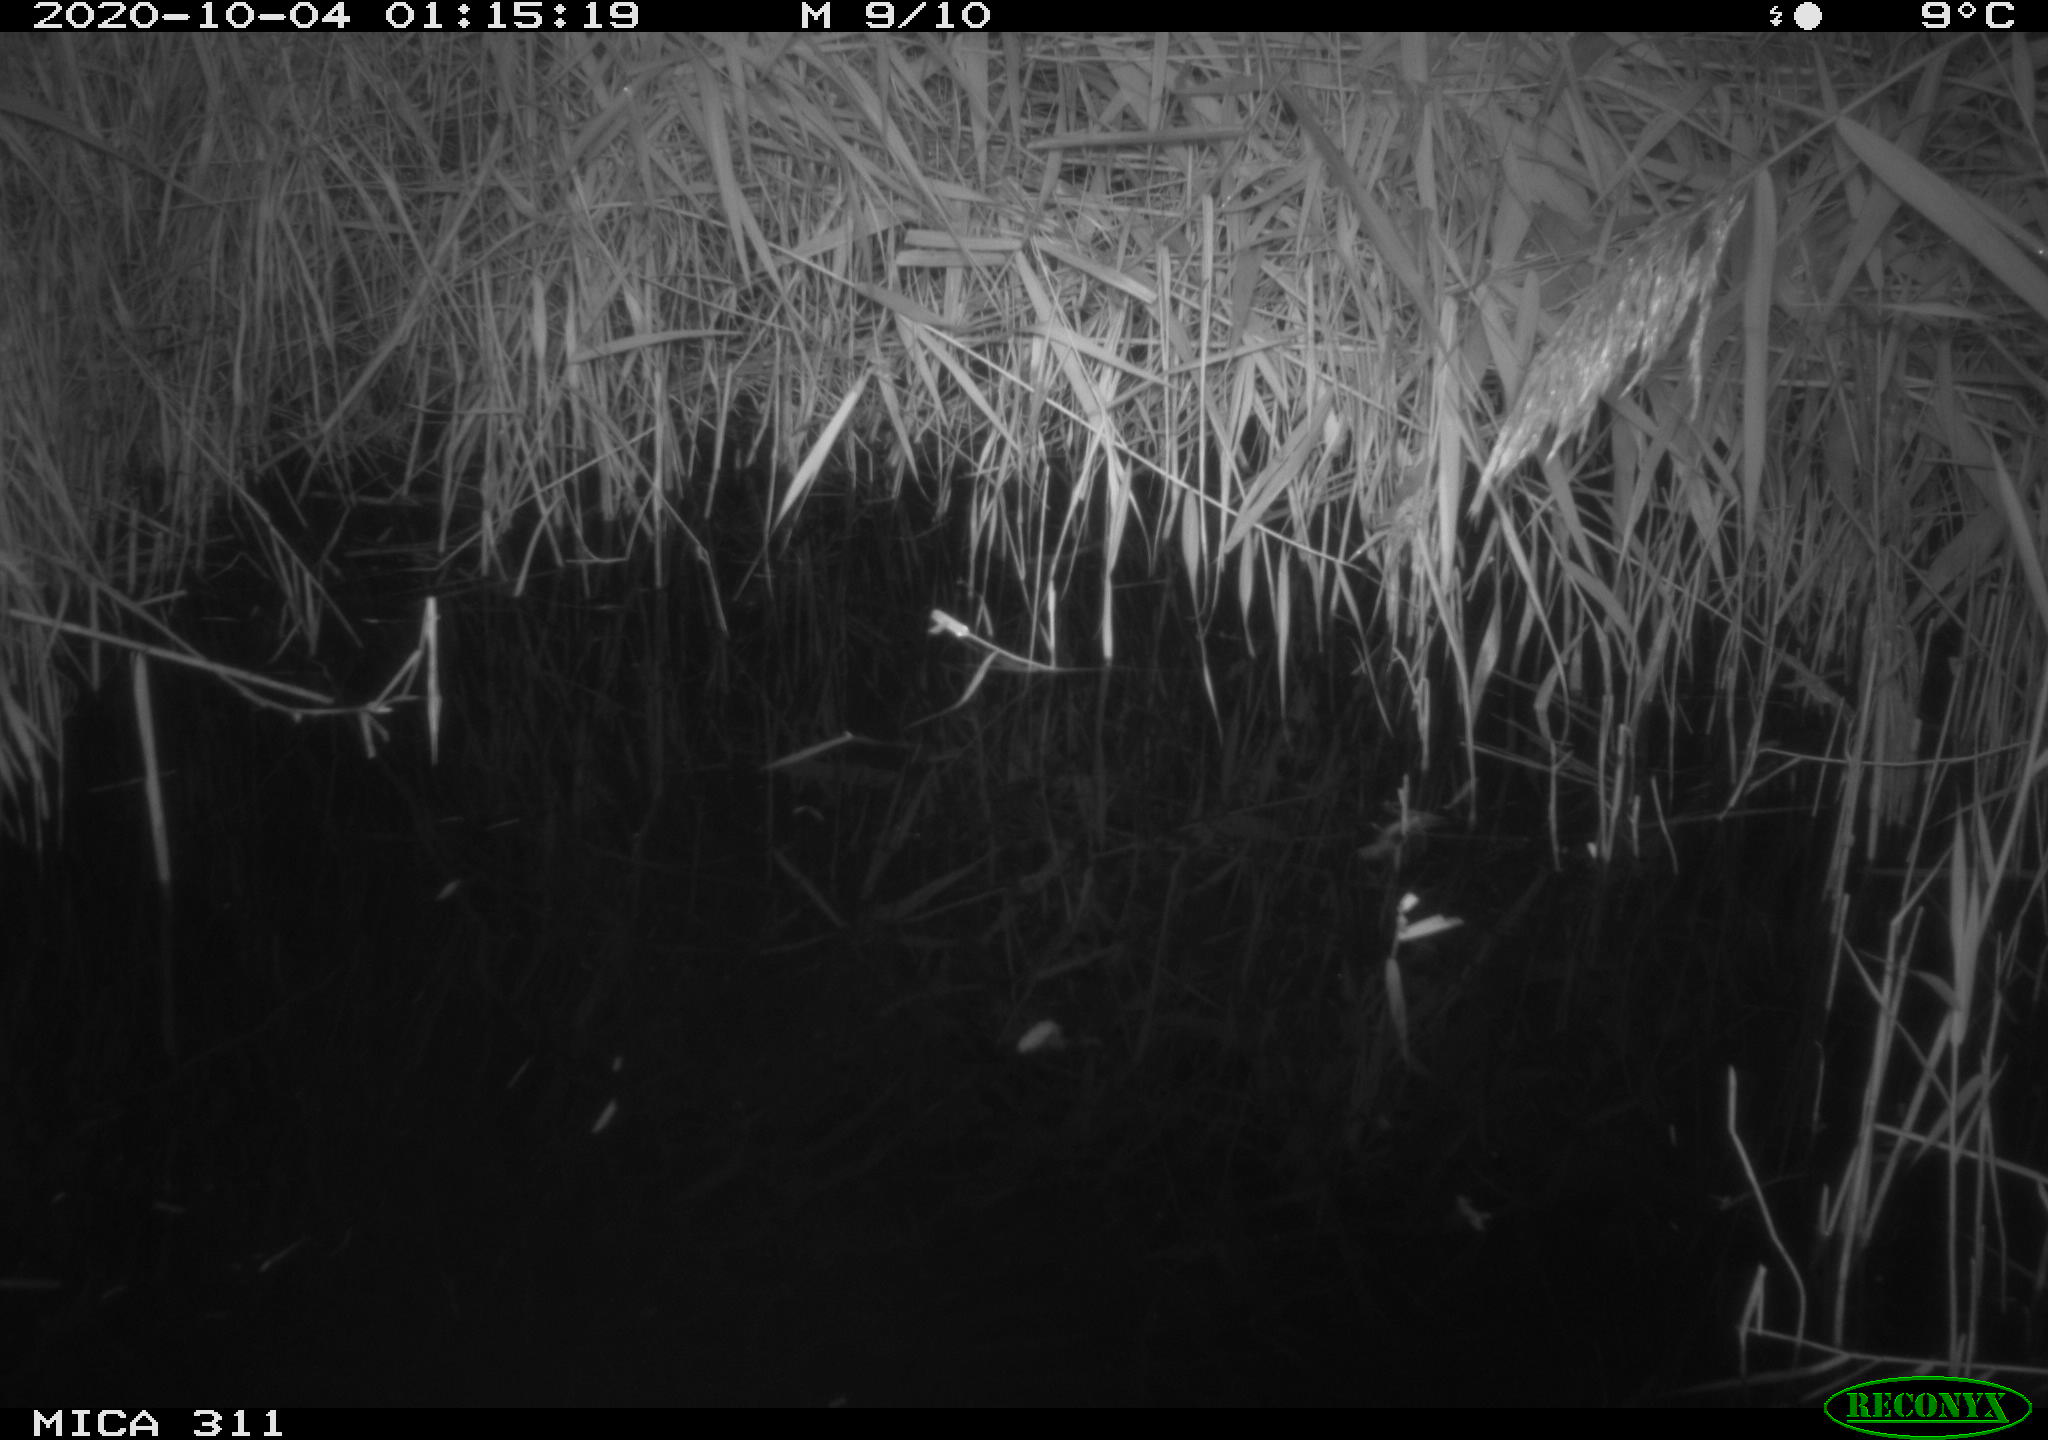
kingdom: Animalia
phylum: Chordata
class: Mammalia
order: Rodentia
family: Muridae
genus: Rattus
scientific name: Rattus norvegicus
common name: Brown rat
